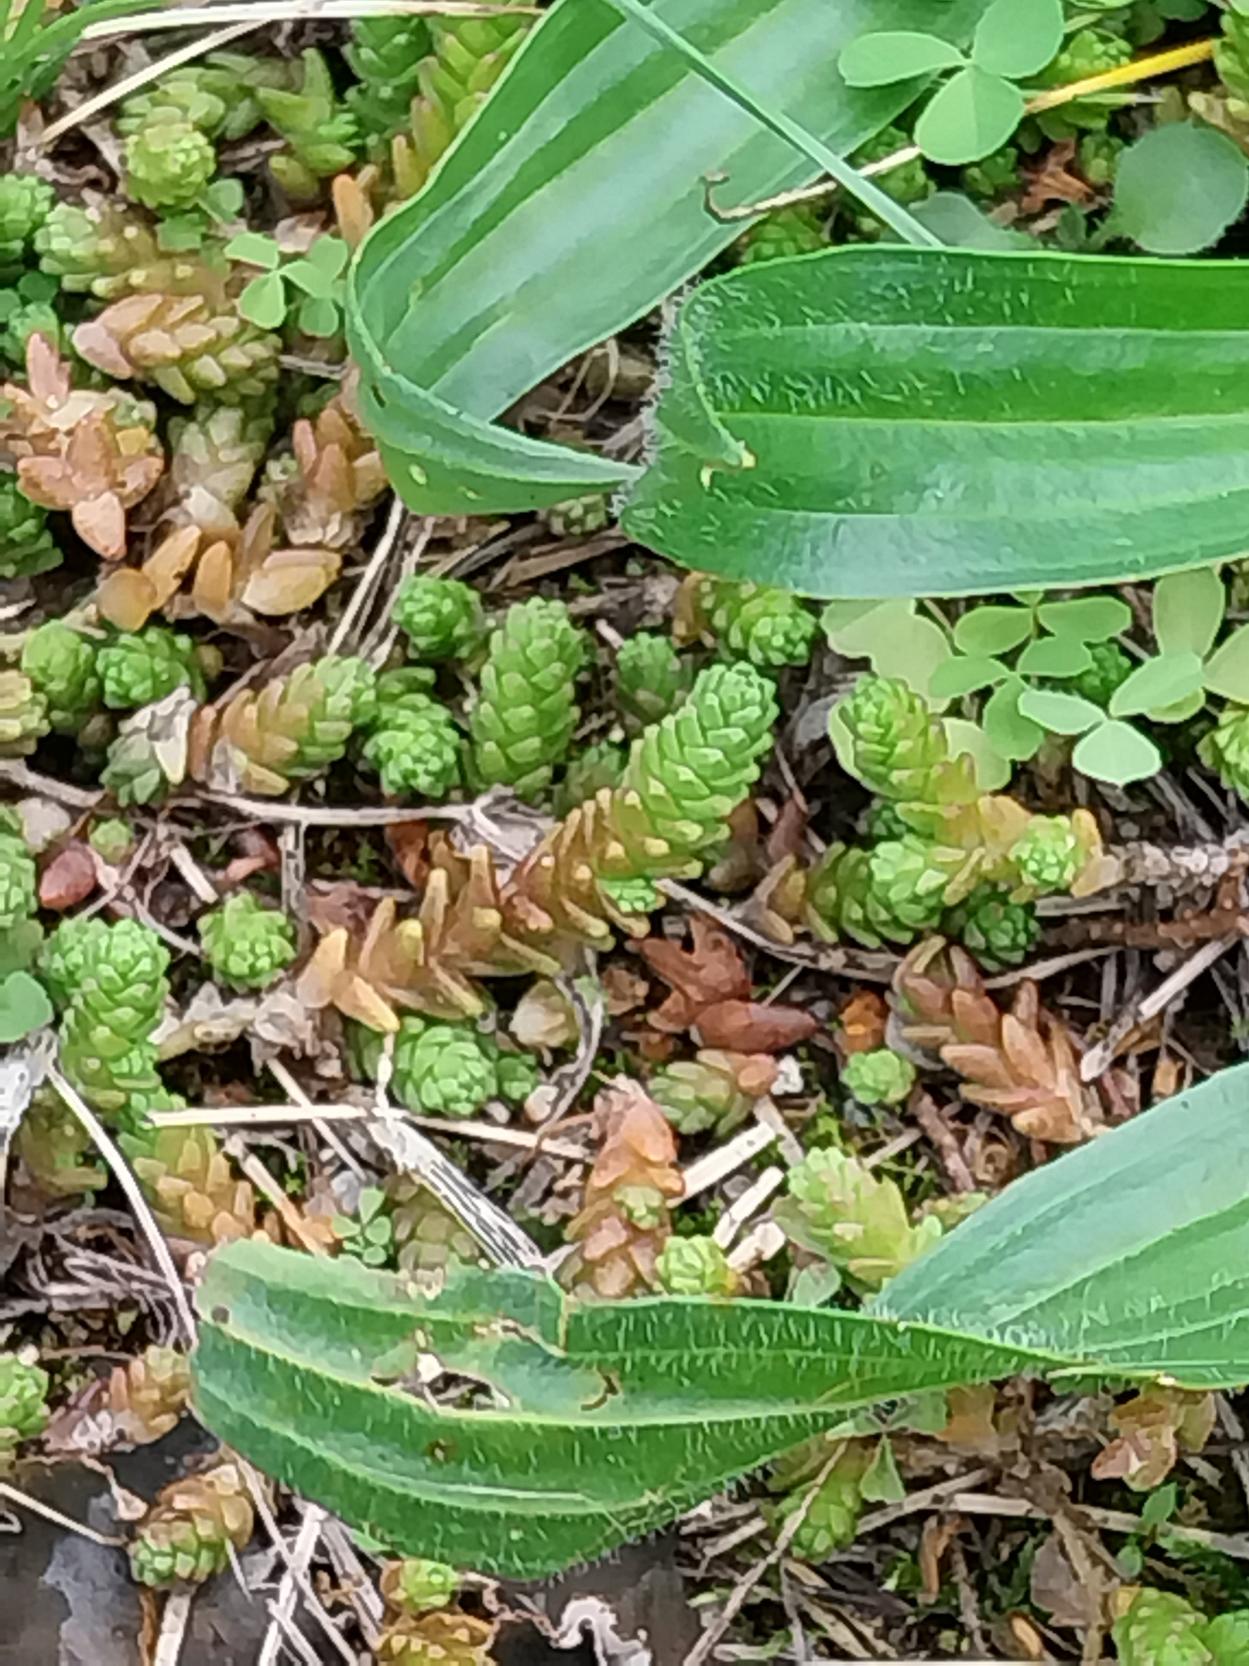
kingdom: Plantae
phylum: Tracheophyta
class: Magnoliopsida
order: Saxifragales
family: Crassulaceae
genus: Sedum
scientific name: Sedum acre
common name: Bidende stenurt
